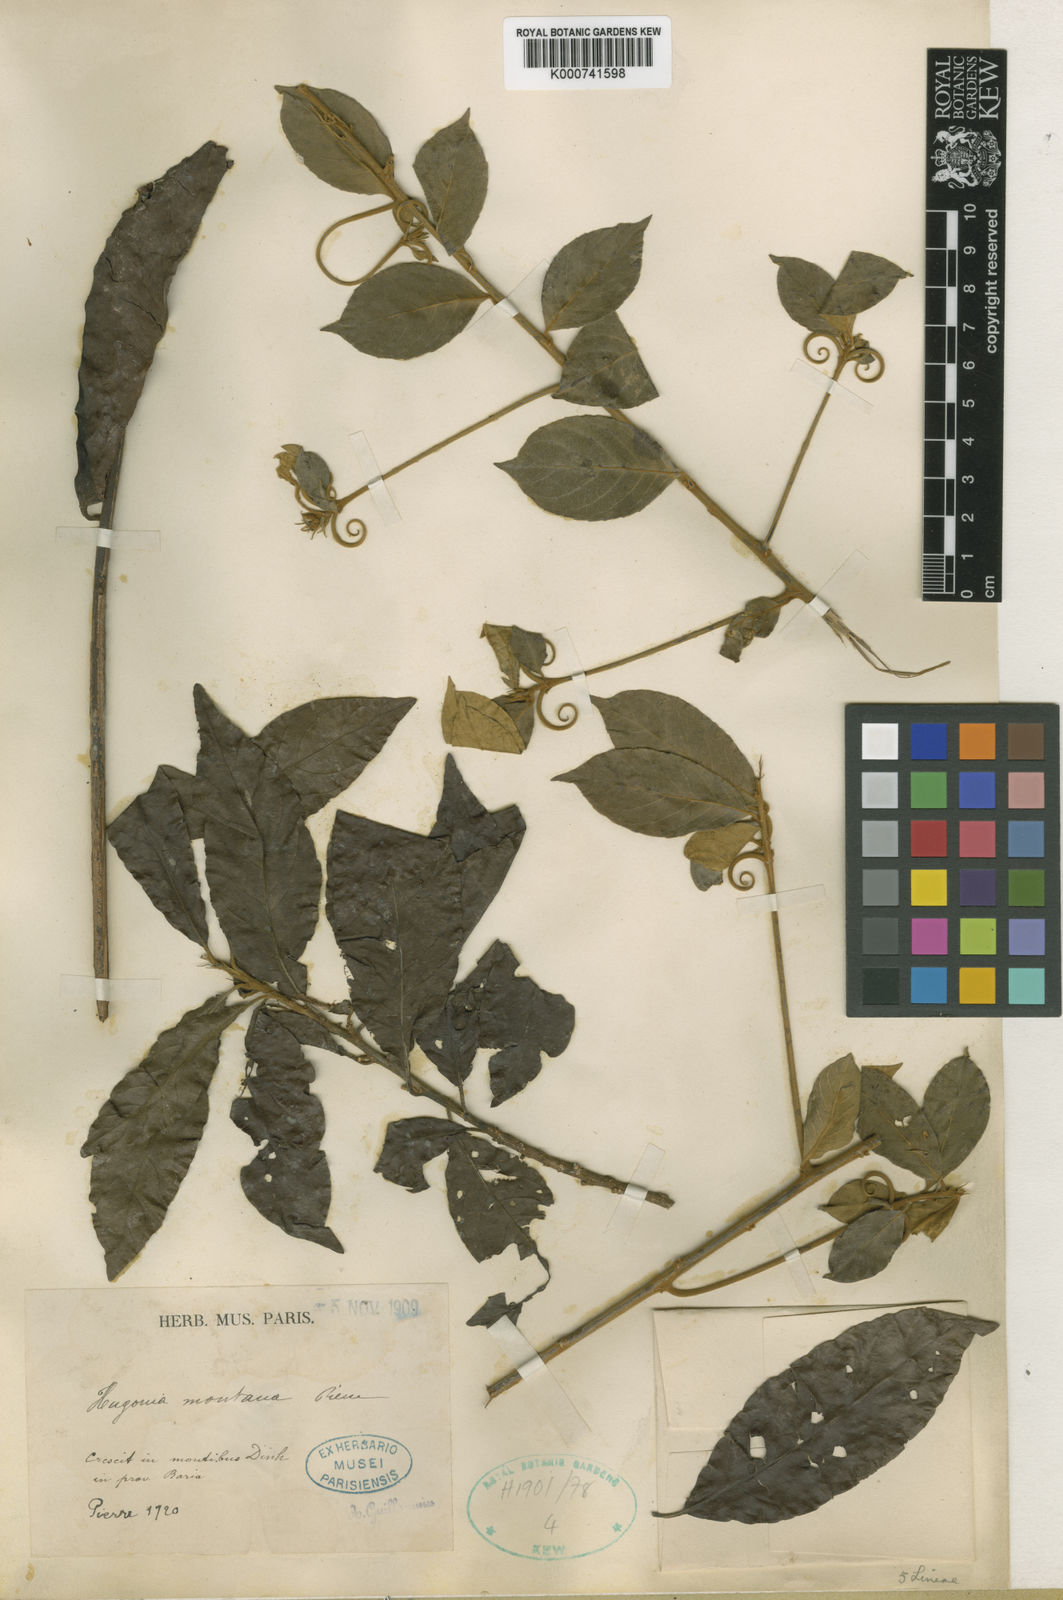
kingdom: Plantae
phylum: Tracheophyta
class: Magnoliopsida
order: Malpighiales
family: Linaceae
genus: Hugonia
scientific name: Hugonia montana
